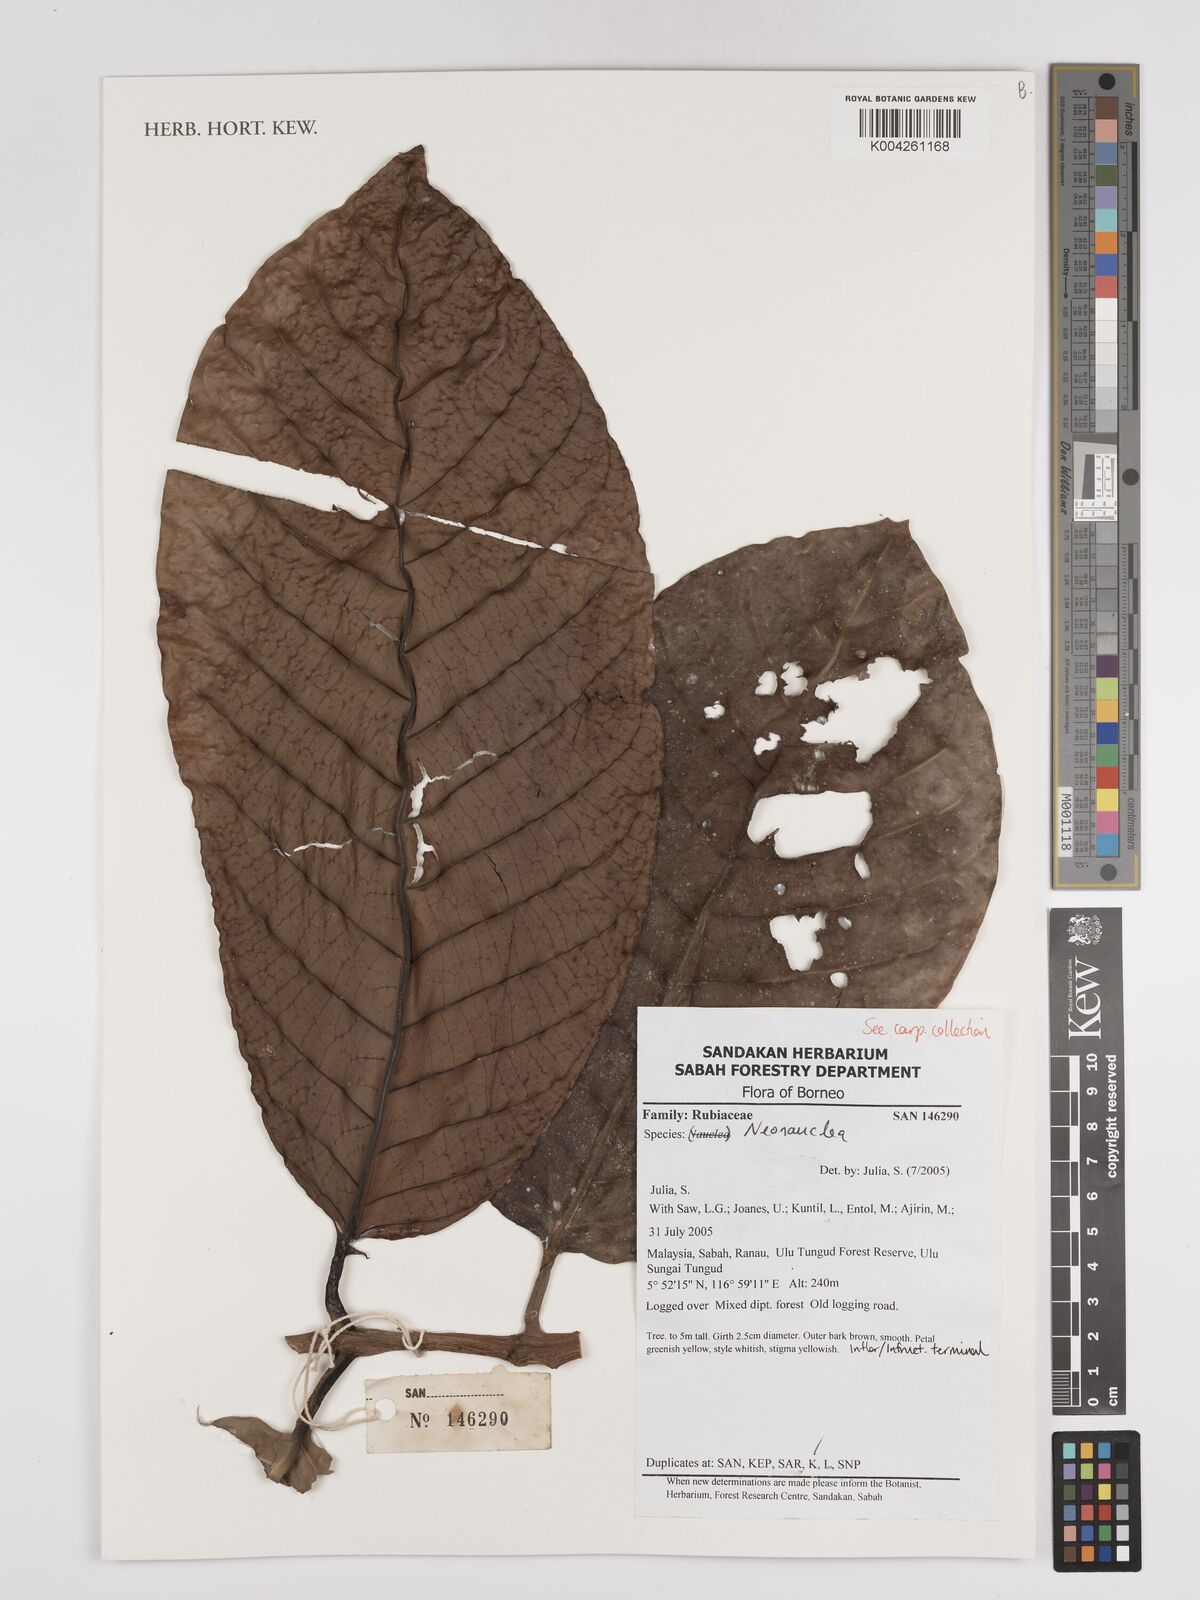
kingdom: Plantae
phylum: Tracheophyta
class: Magnoliopsida
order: Gentianales
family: Rubiaceae
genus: Neonauclea
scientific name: Neonauclea
